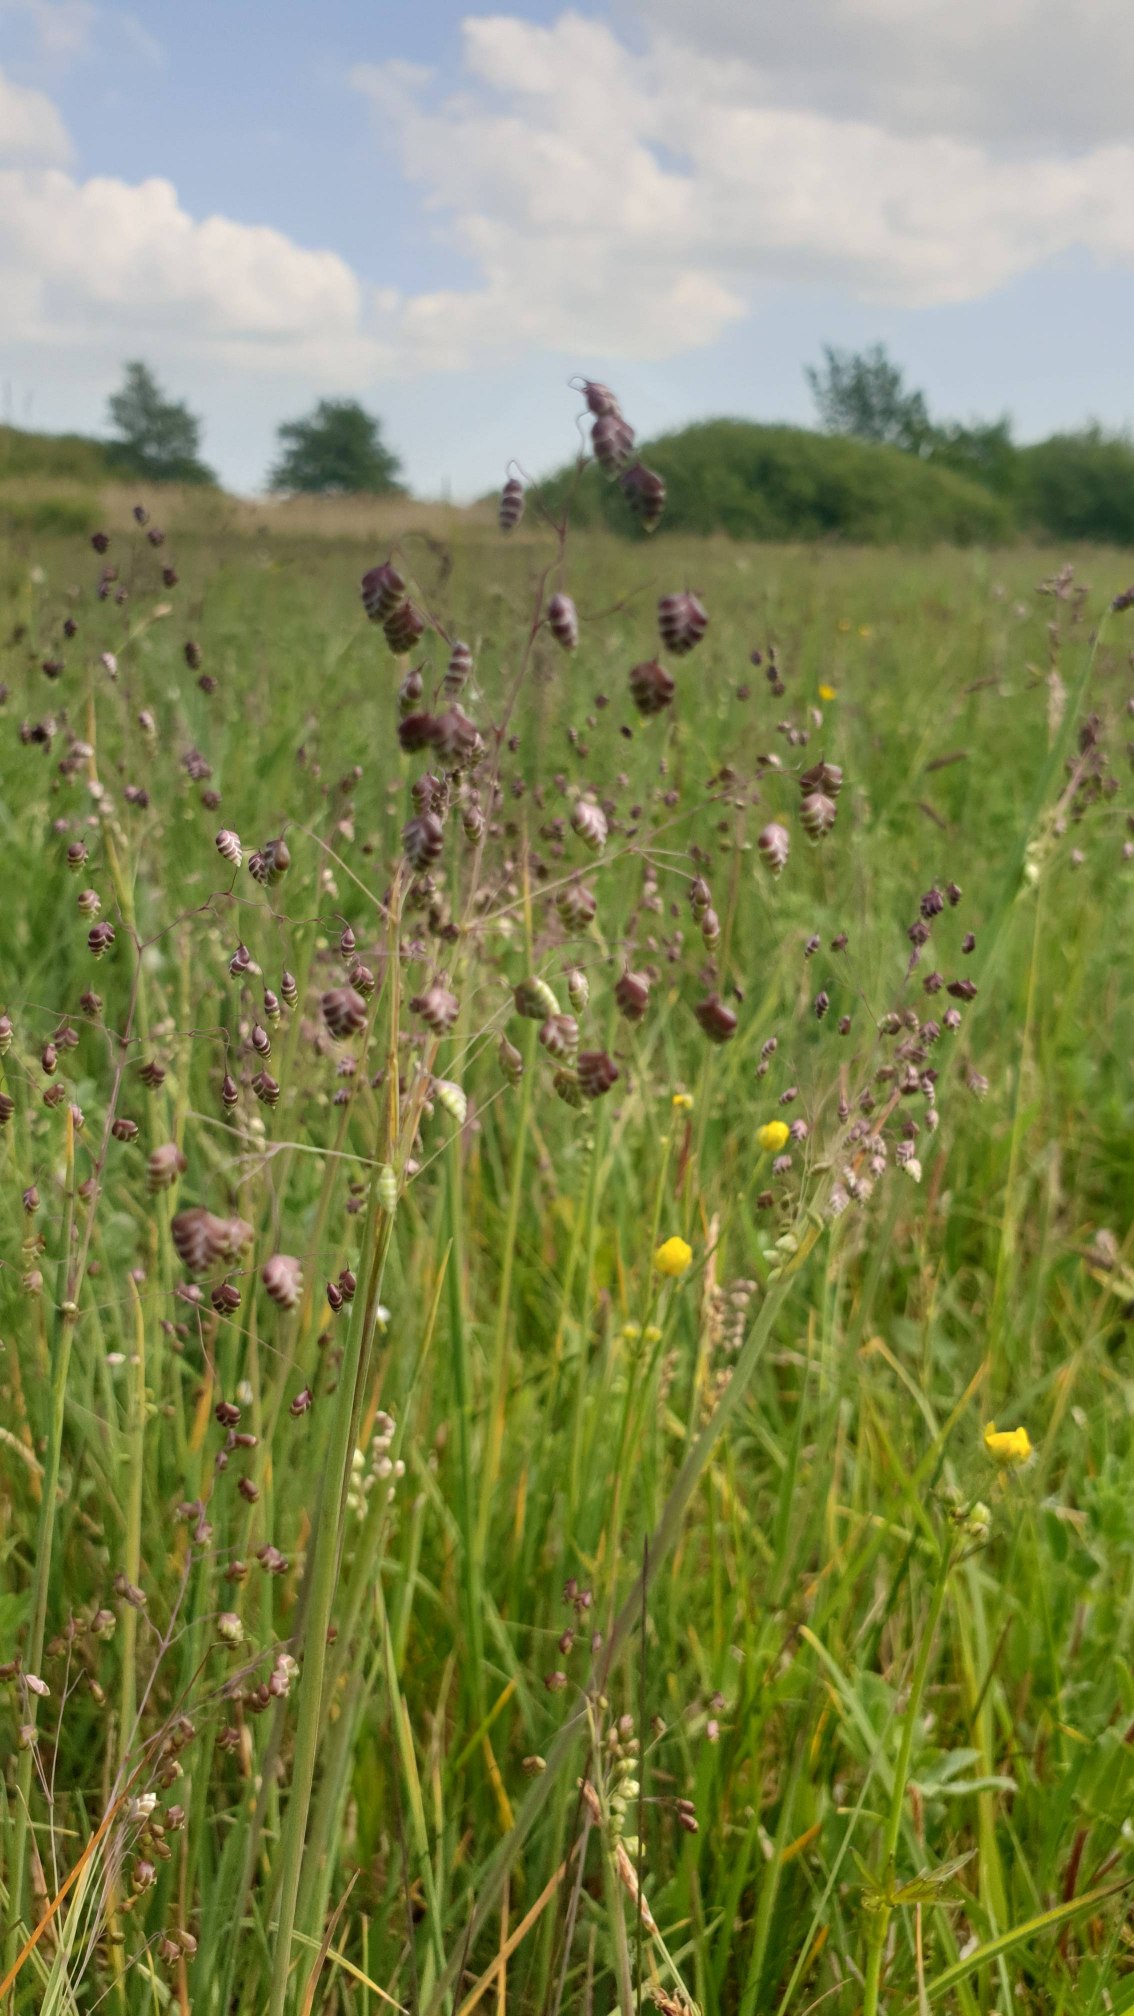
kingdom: Plantae
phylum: Tracheophyta
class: Liliopsida
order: Poales
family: Poaceae
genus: Briza
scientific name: Briza media
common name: Hjertegræs
